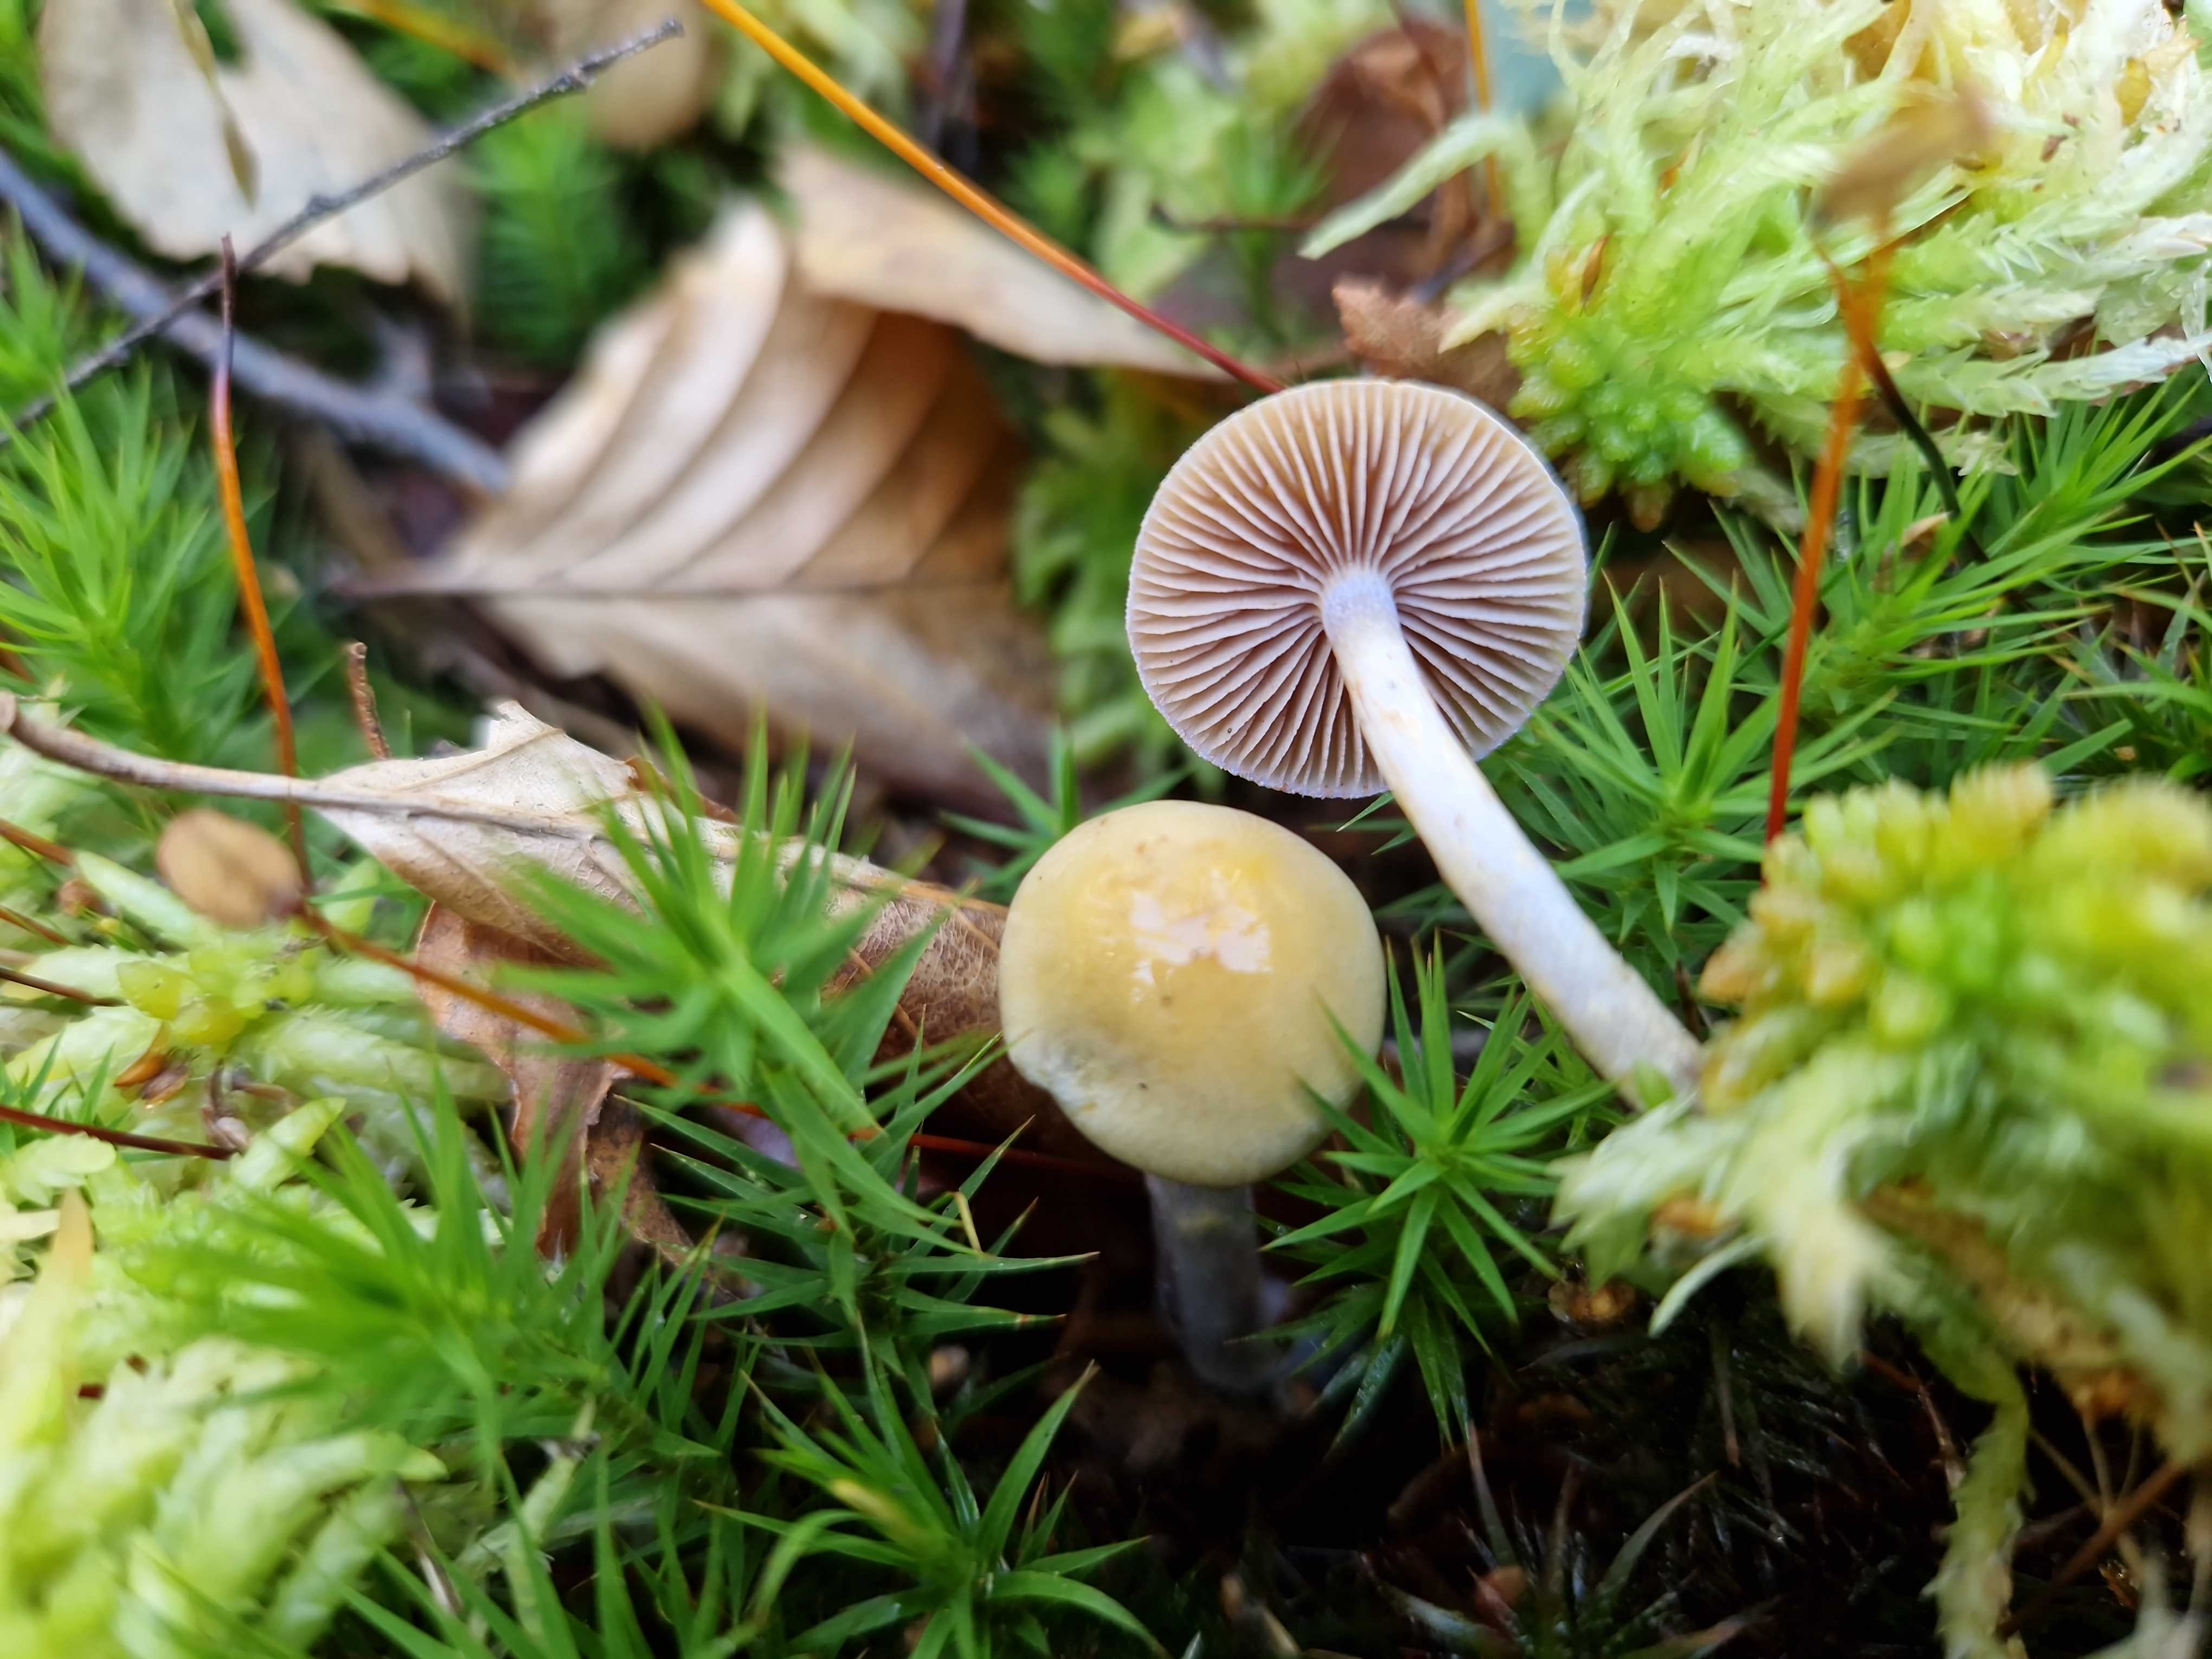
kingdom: Fungi
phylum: Basidiomycota
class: Agaricomycetes
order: Agaricales
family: Cortinariaceae
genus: Cortinarius
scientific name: Cortinarius betulinus
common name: akvamarin-slørhat
